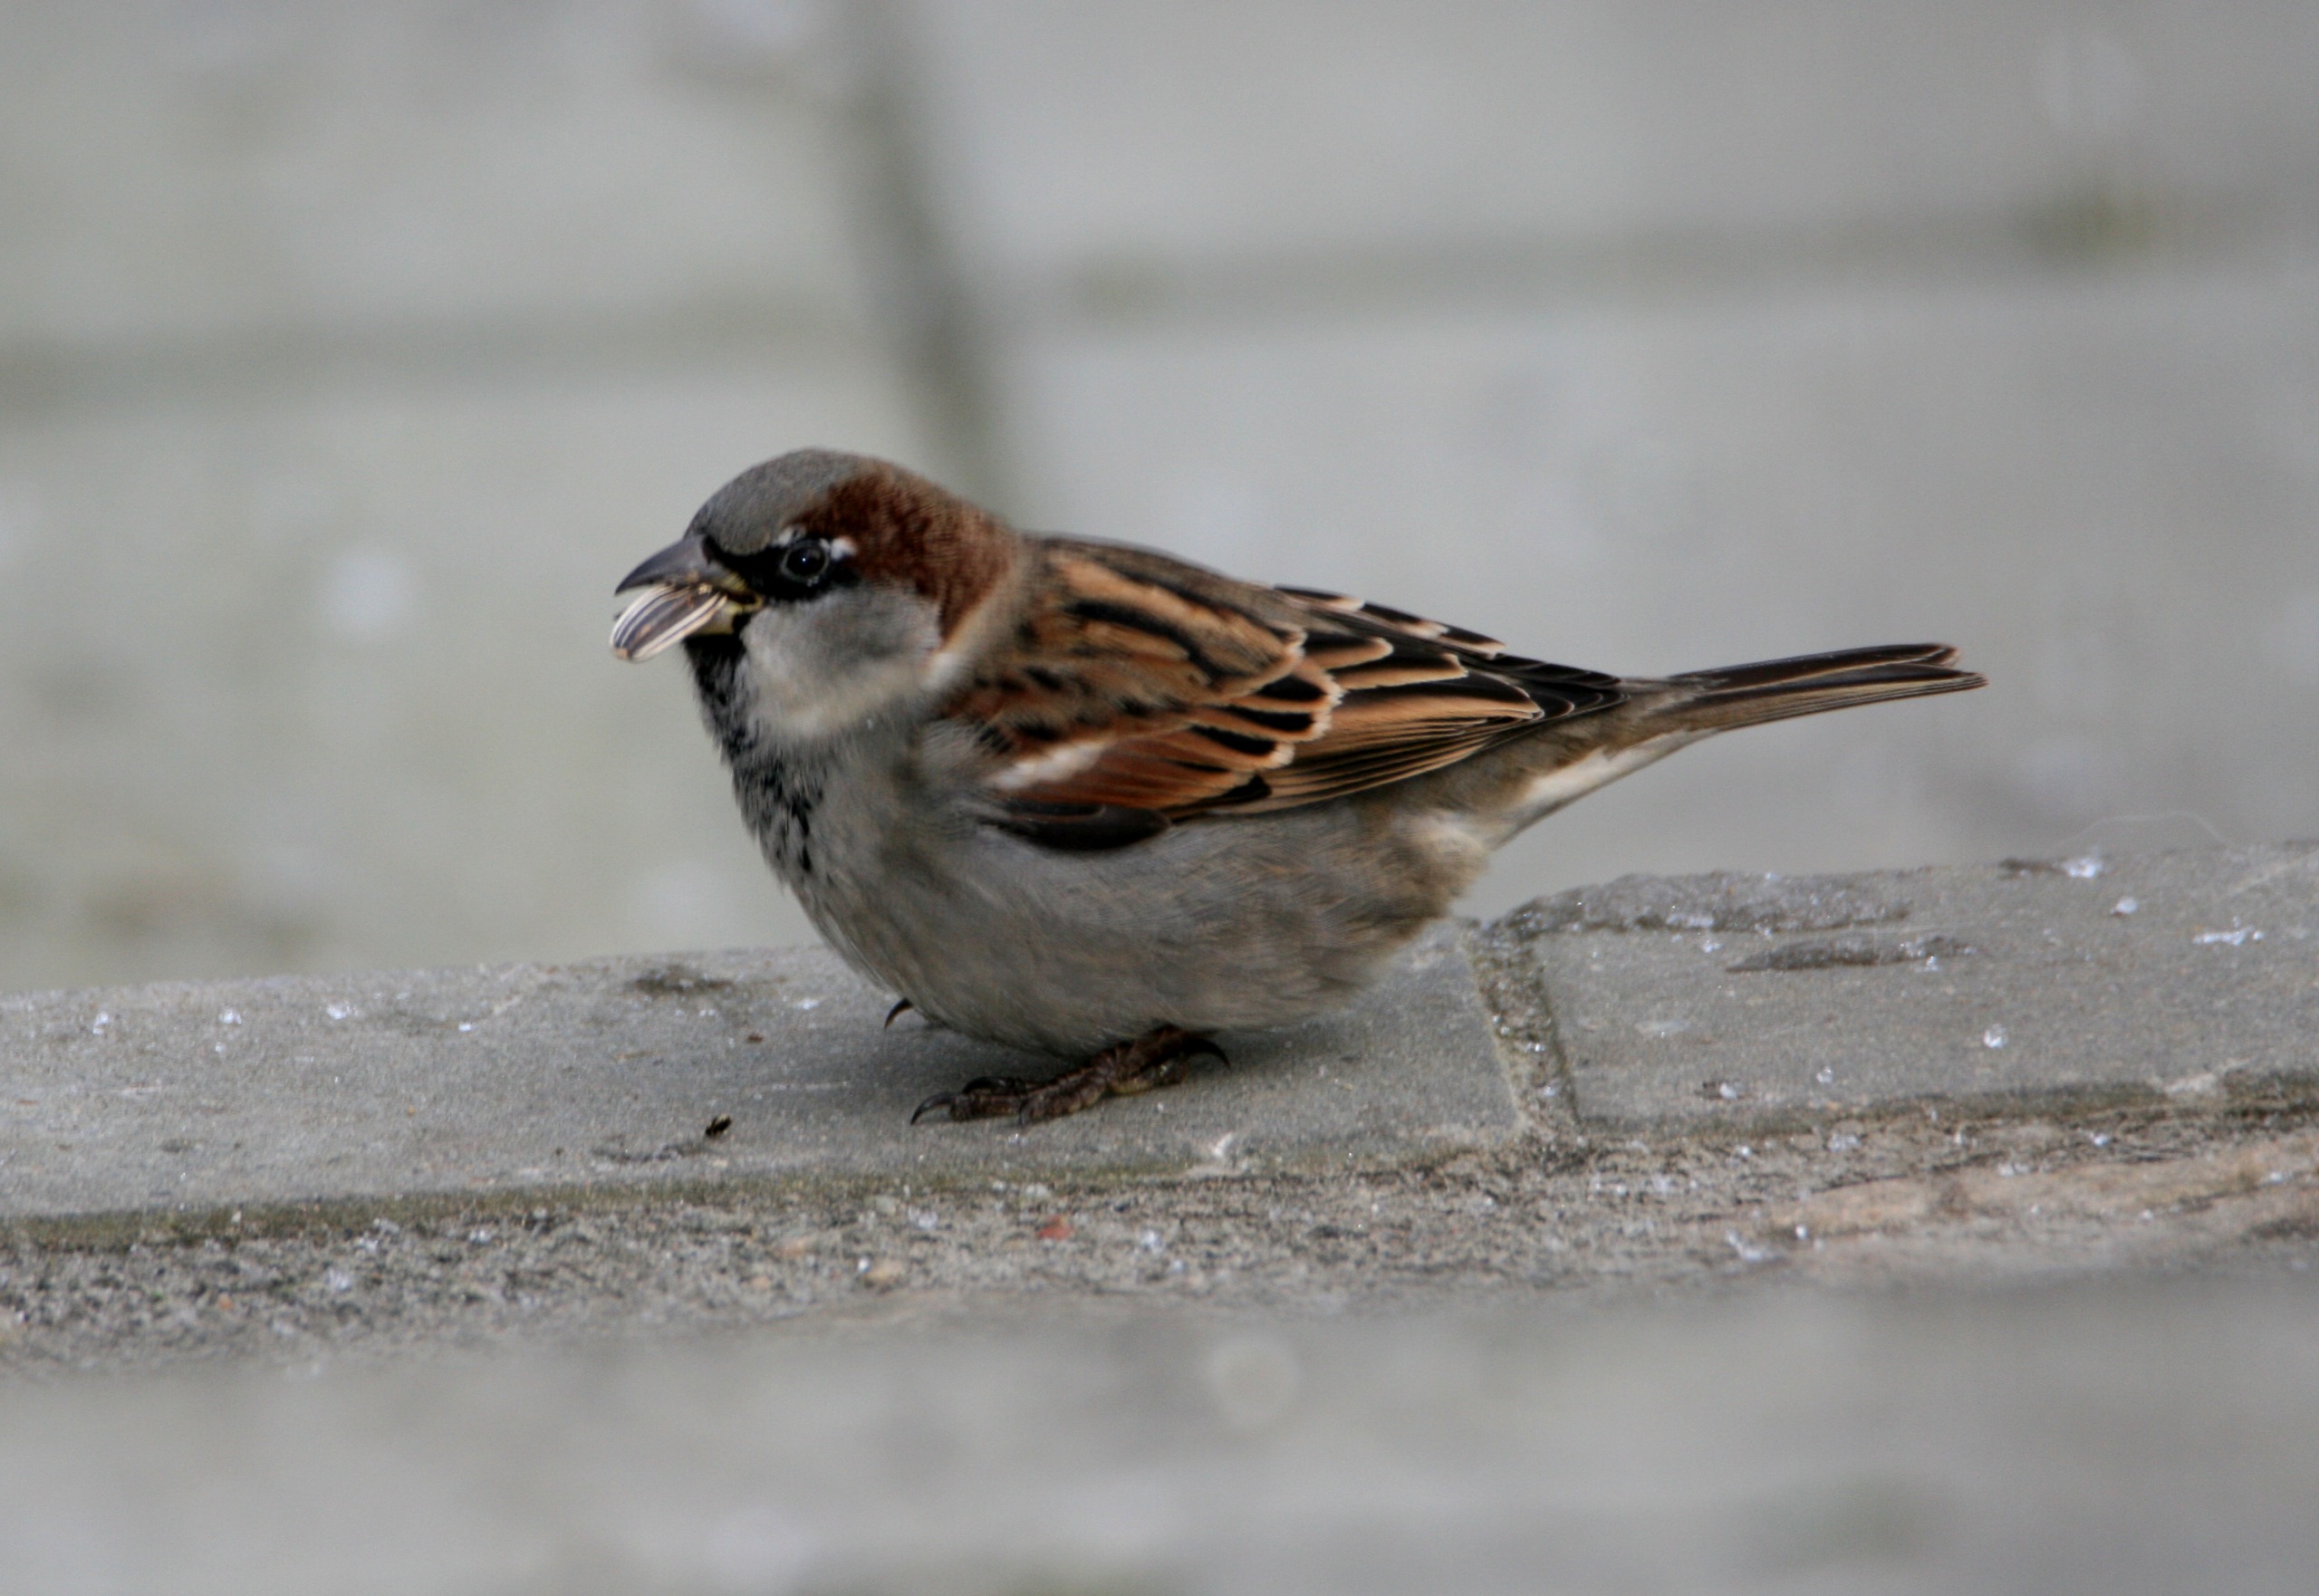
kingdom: Animalia
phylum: Chordata
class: Aves
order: Passeriformes
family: Passeridae
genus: Passer
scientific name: Passer domesticus
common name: Gråspurv
